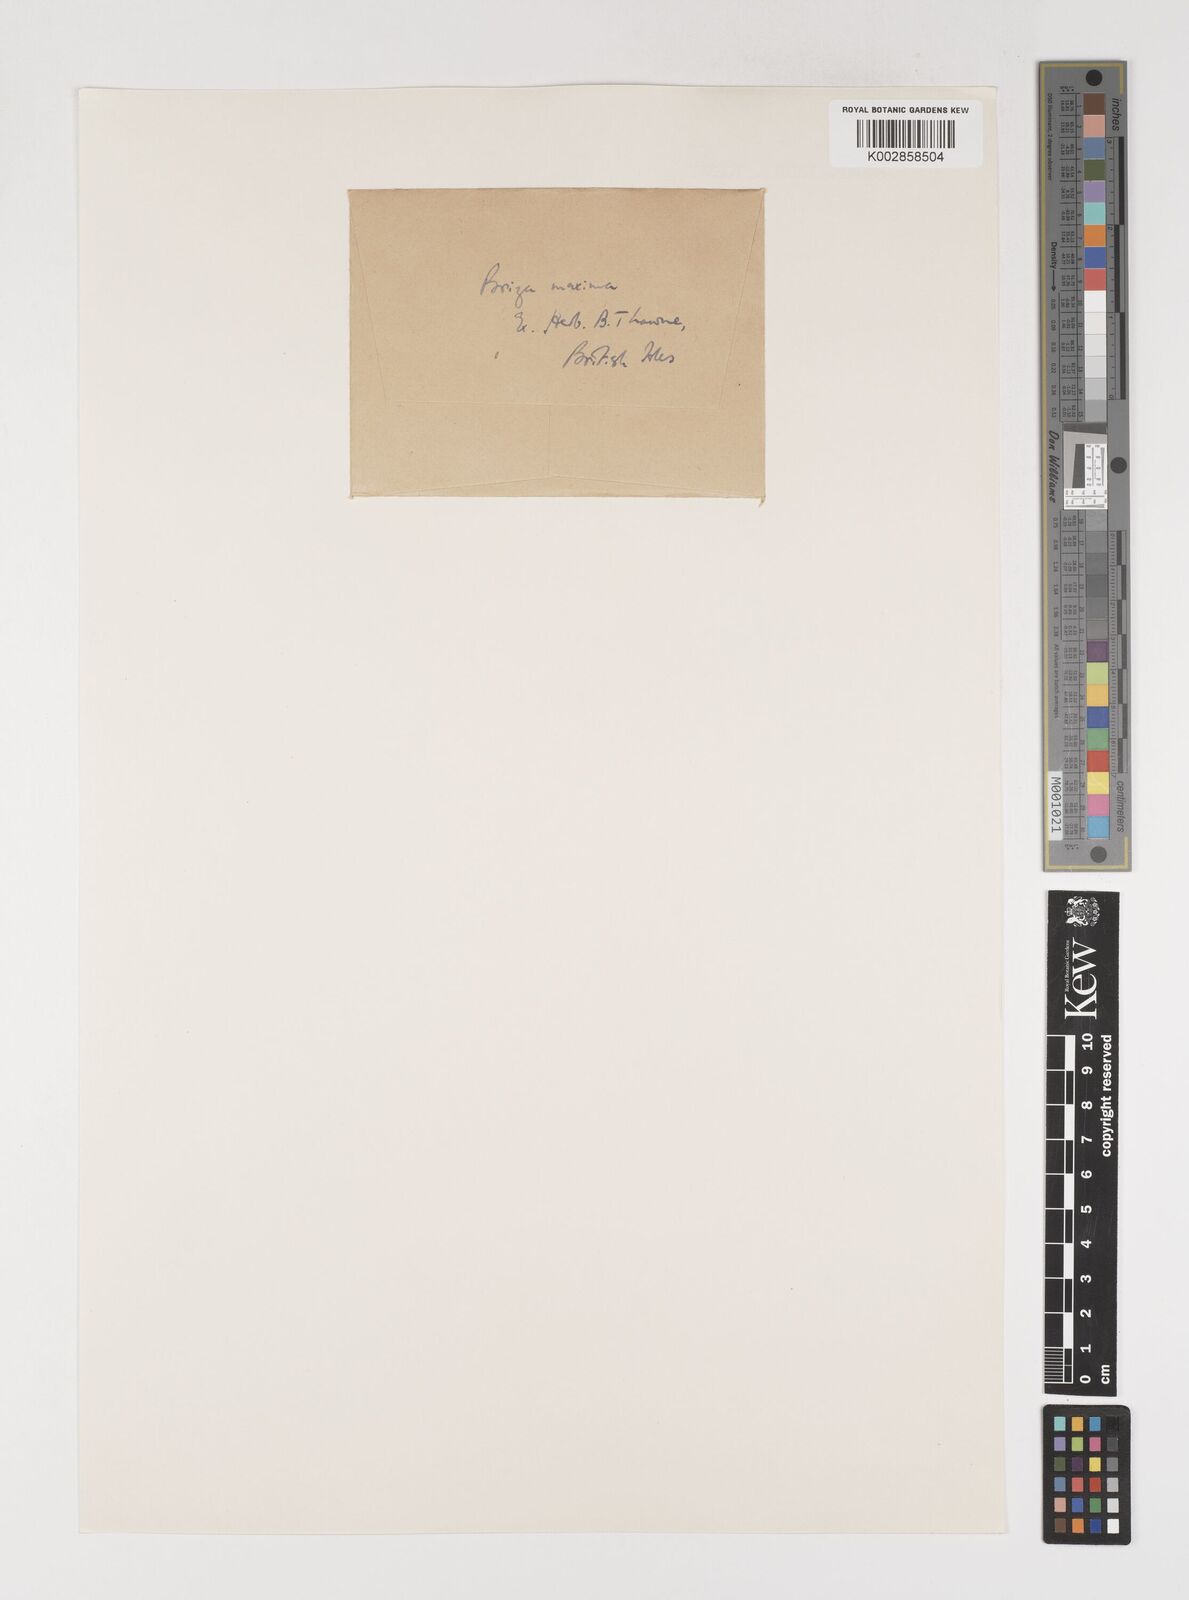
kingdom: Plantae
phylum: Tracheophyta
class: Liliopsida
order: Poales
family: Poaceae
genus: Briza
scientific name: Briza maxima
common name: Big quakinggrass
